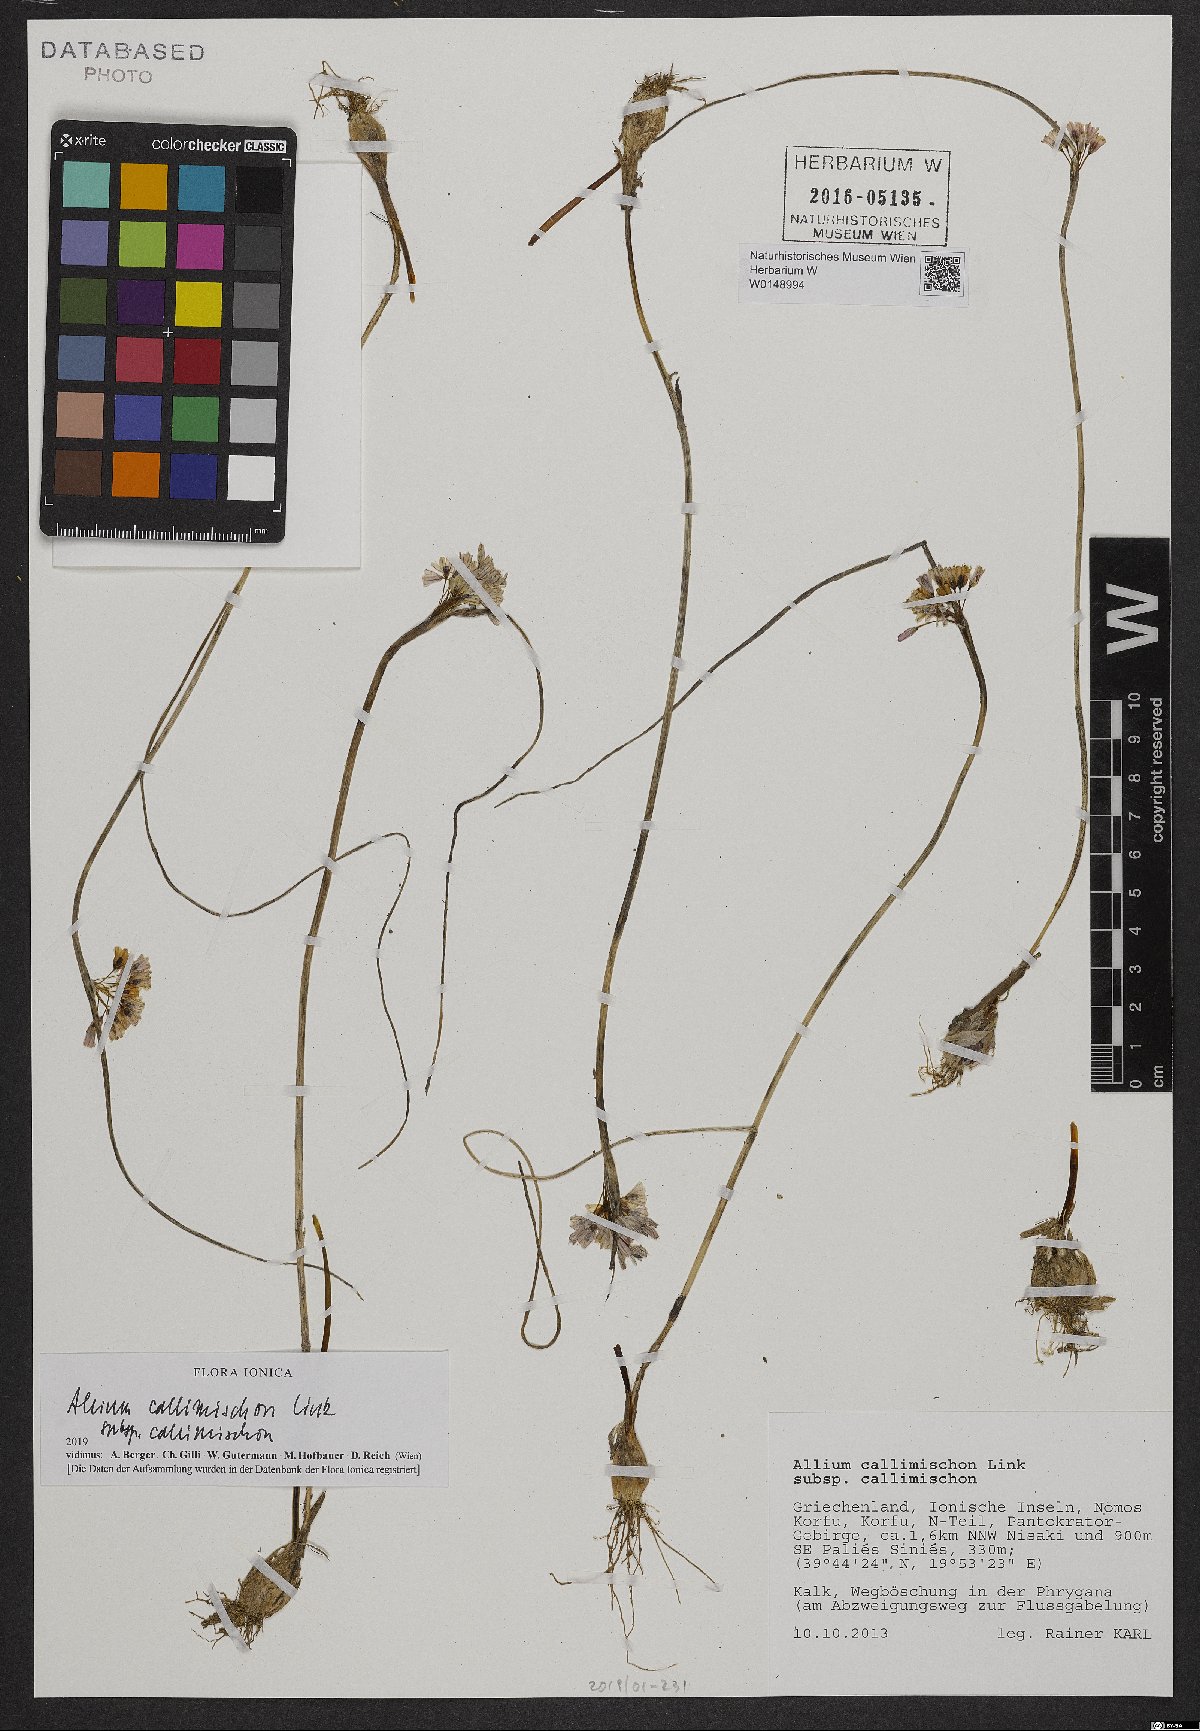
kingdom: Plantae
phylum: Tracheophyta
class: Liliopsida
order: Asparagales
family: Amaryllidaceae
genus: Allium
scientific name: Allium callimischon
